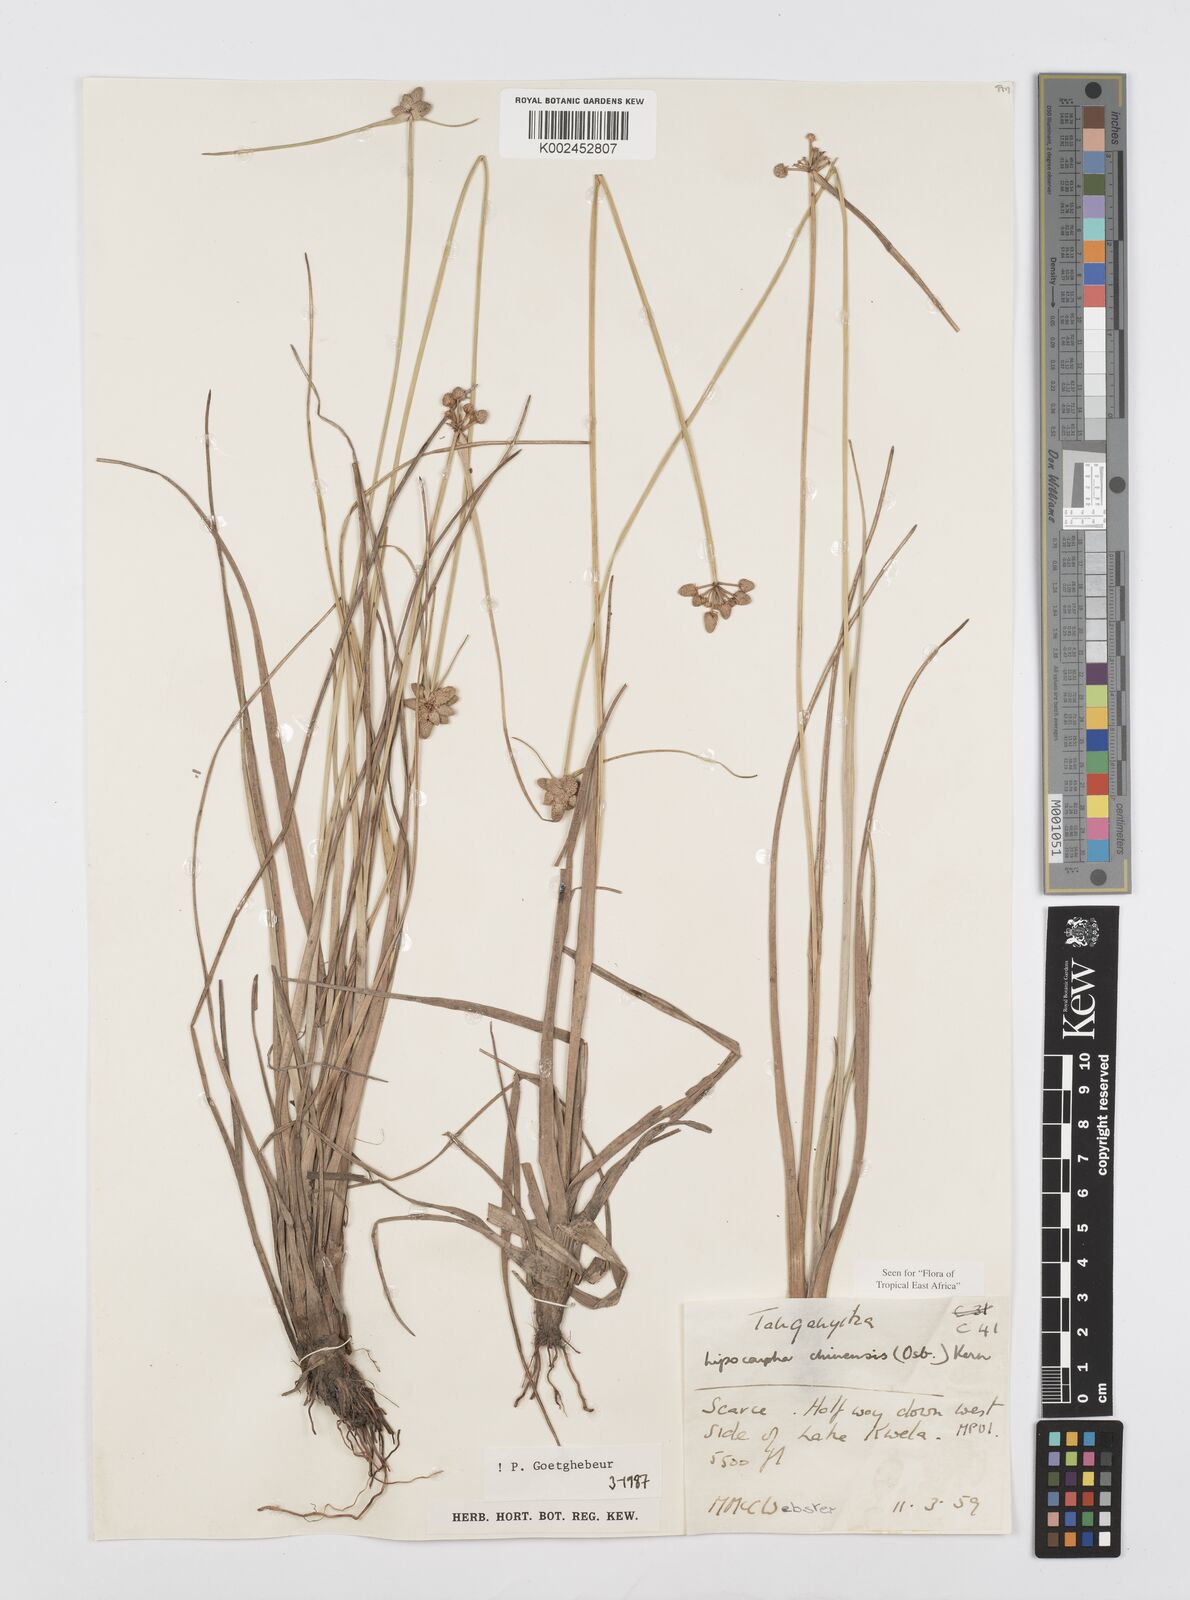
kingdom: Plantae
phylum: Tracheophyta
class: Liliopsida
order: Poales
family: Cyperaceae
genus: Cyperus
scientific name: Cyperus albescens
